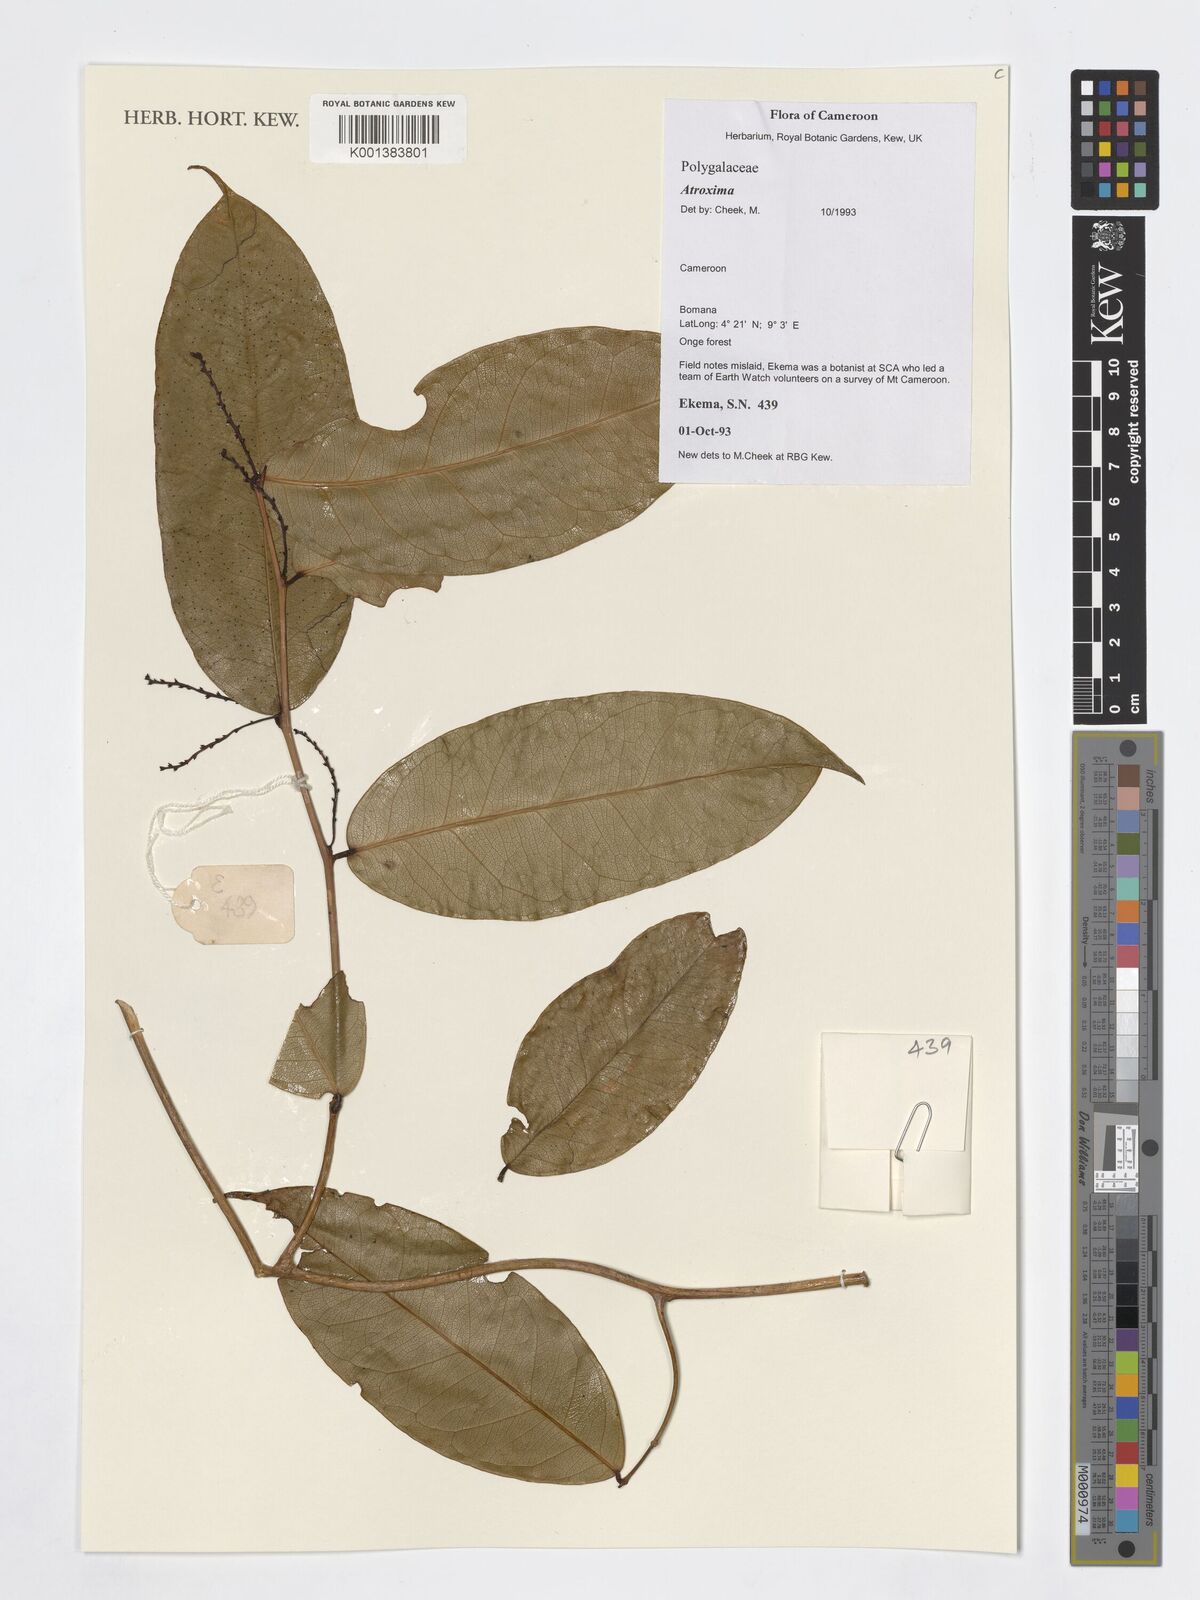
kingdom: Plantae
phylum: Tracheophyta
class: Magnoliopsida
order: Fabales
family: Polygalaceae
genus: Atroxima
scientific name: Atroxima
